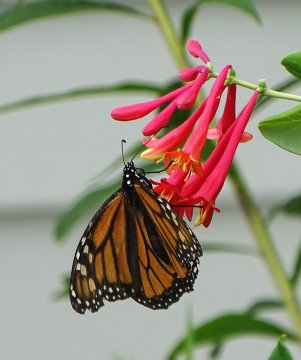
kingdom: Animalia
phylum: Arthropoda
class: Insecta
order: Lepidoptera
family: Nymphalidae
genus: Danaus
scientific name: Danaus plexippus
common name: Monarch
